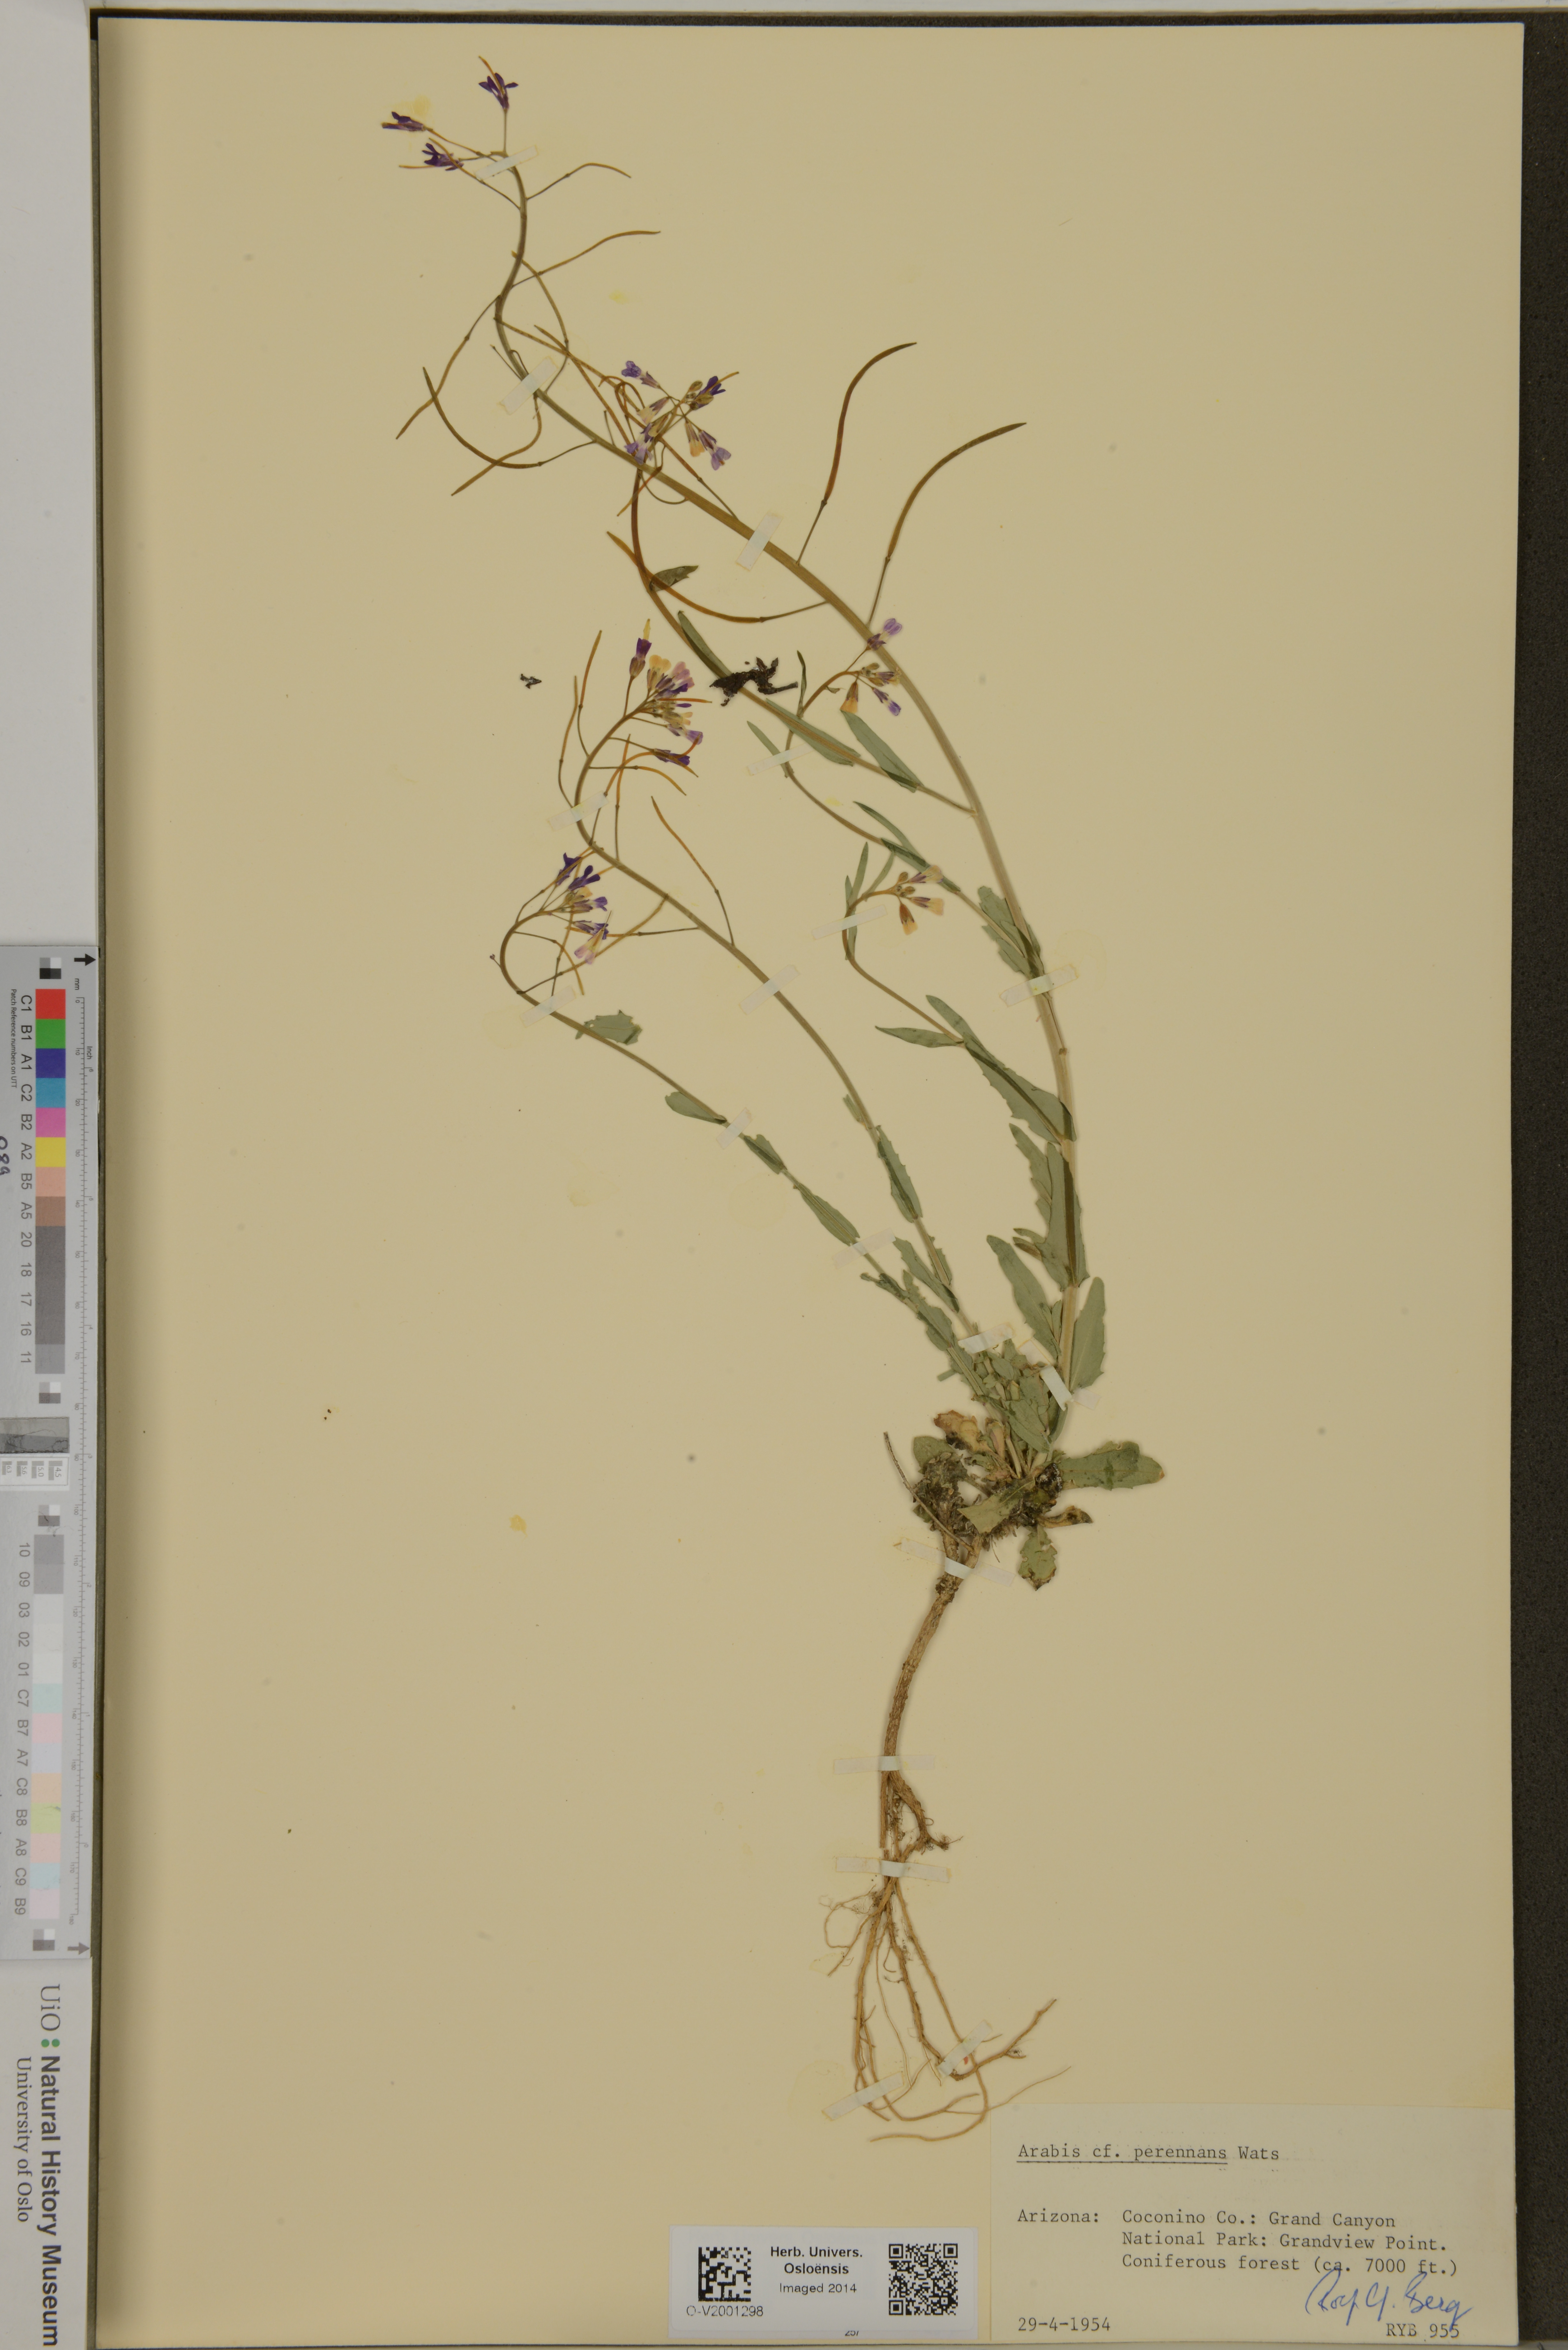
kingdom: Plantae
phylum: Tracheophyta
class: Magnoliopsida
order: Brassicales
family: Brassicaceae
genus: Boechera
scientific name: Boechera perennans
